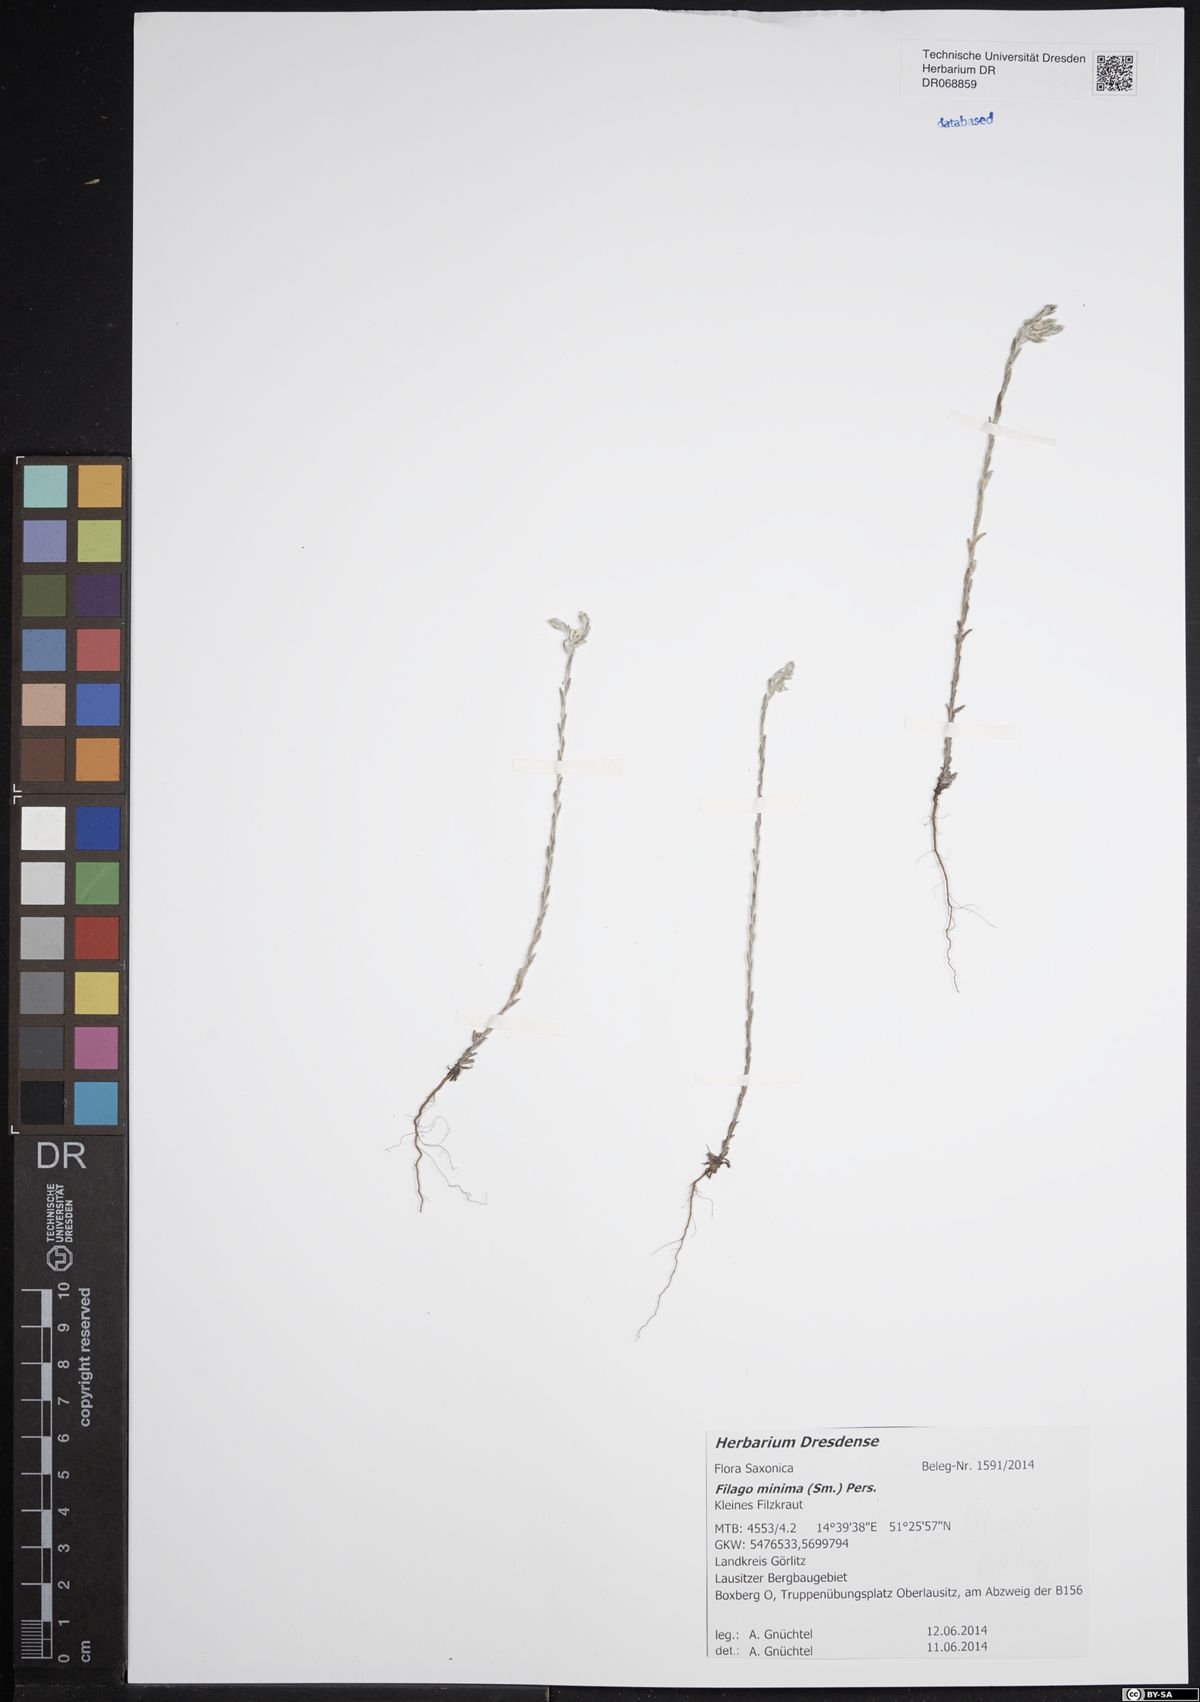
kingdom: Plantae
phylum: Tracheophyta
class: Magnoliopsida
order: Asterales
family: Asteraceae
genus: Logfia
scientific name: Logfia minima
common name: Little cottonrose
